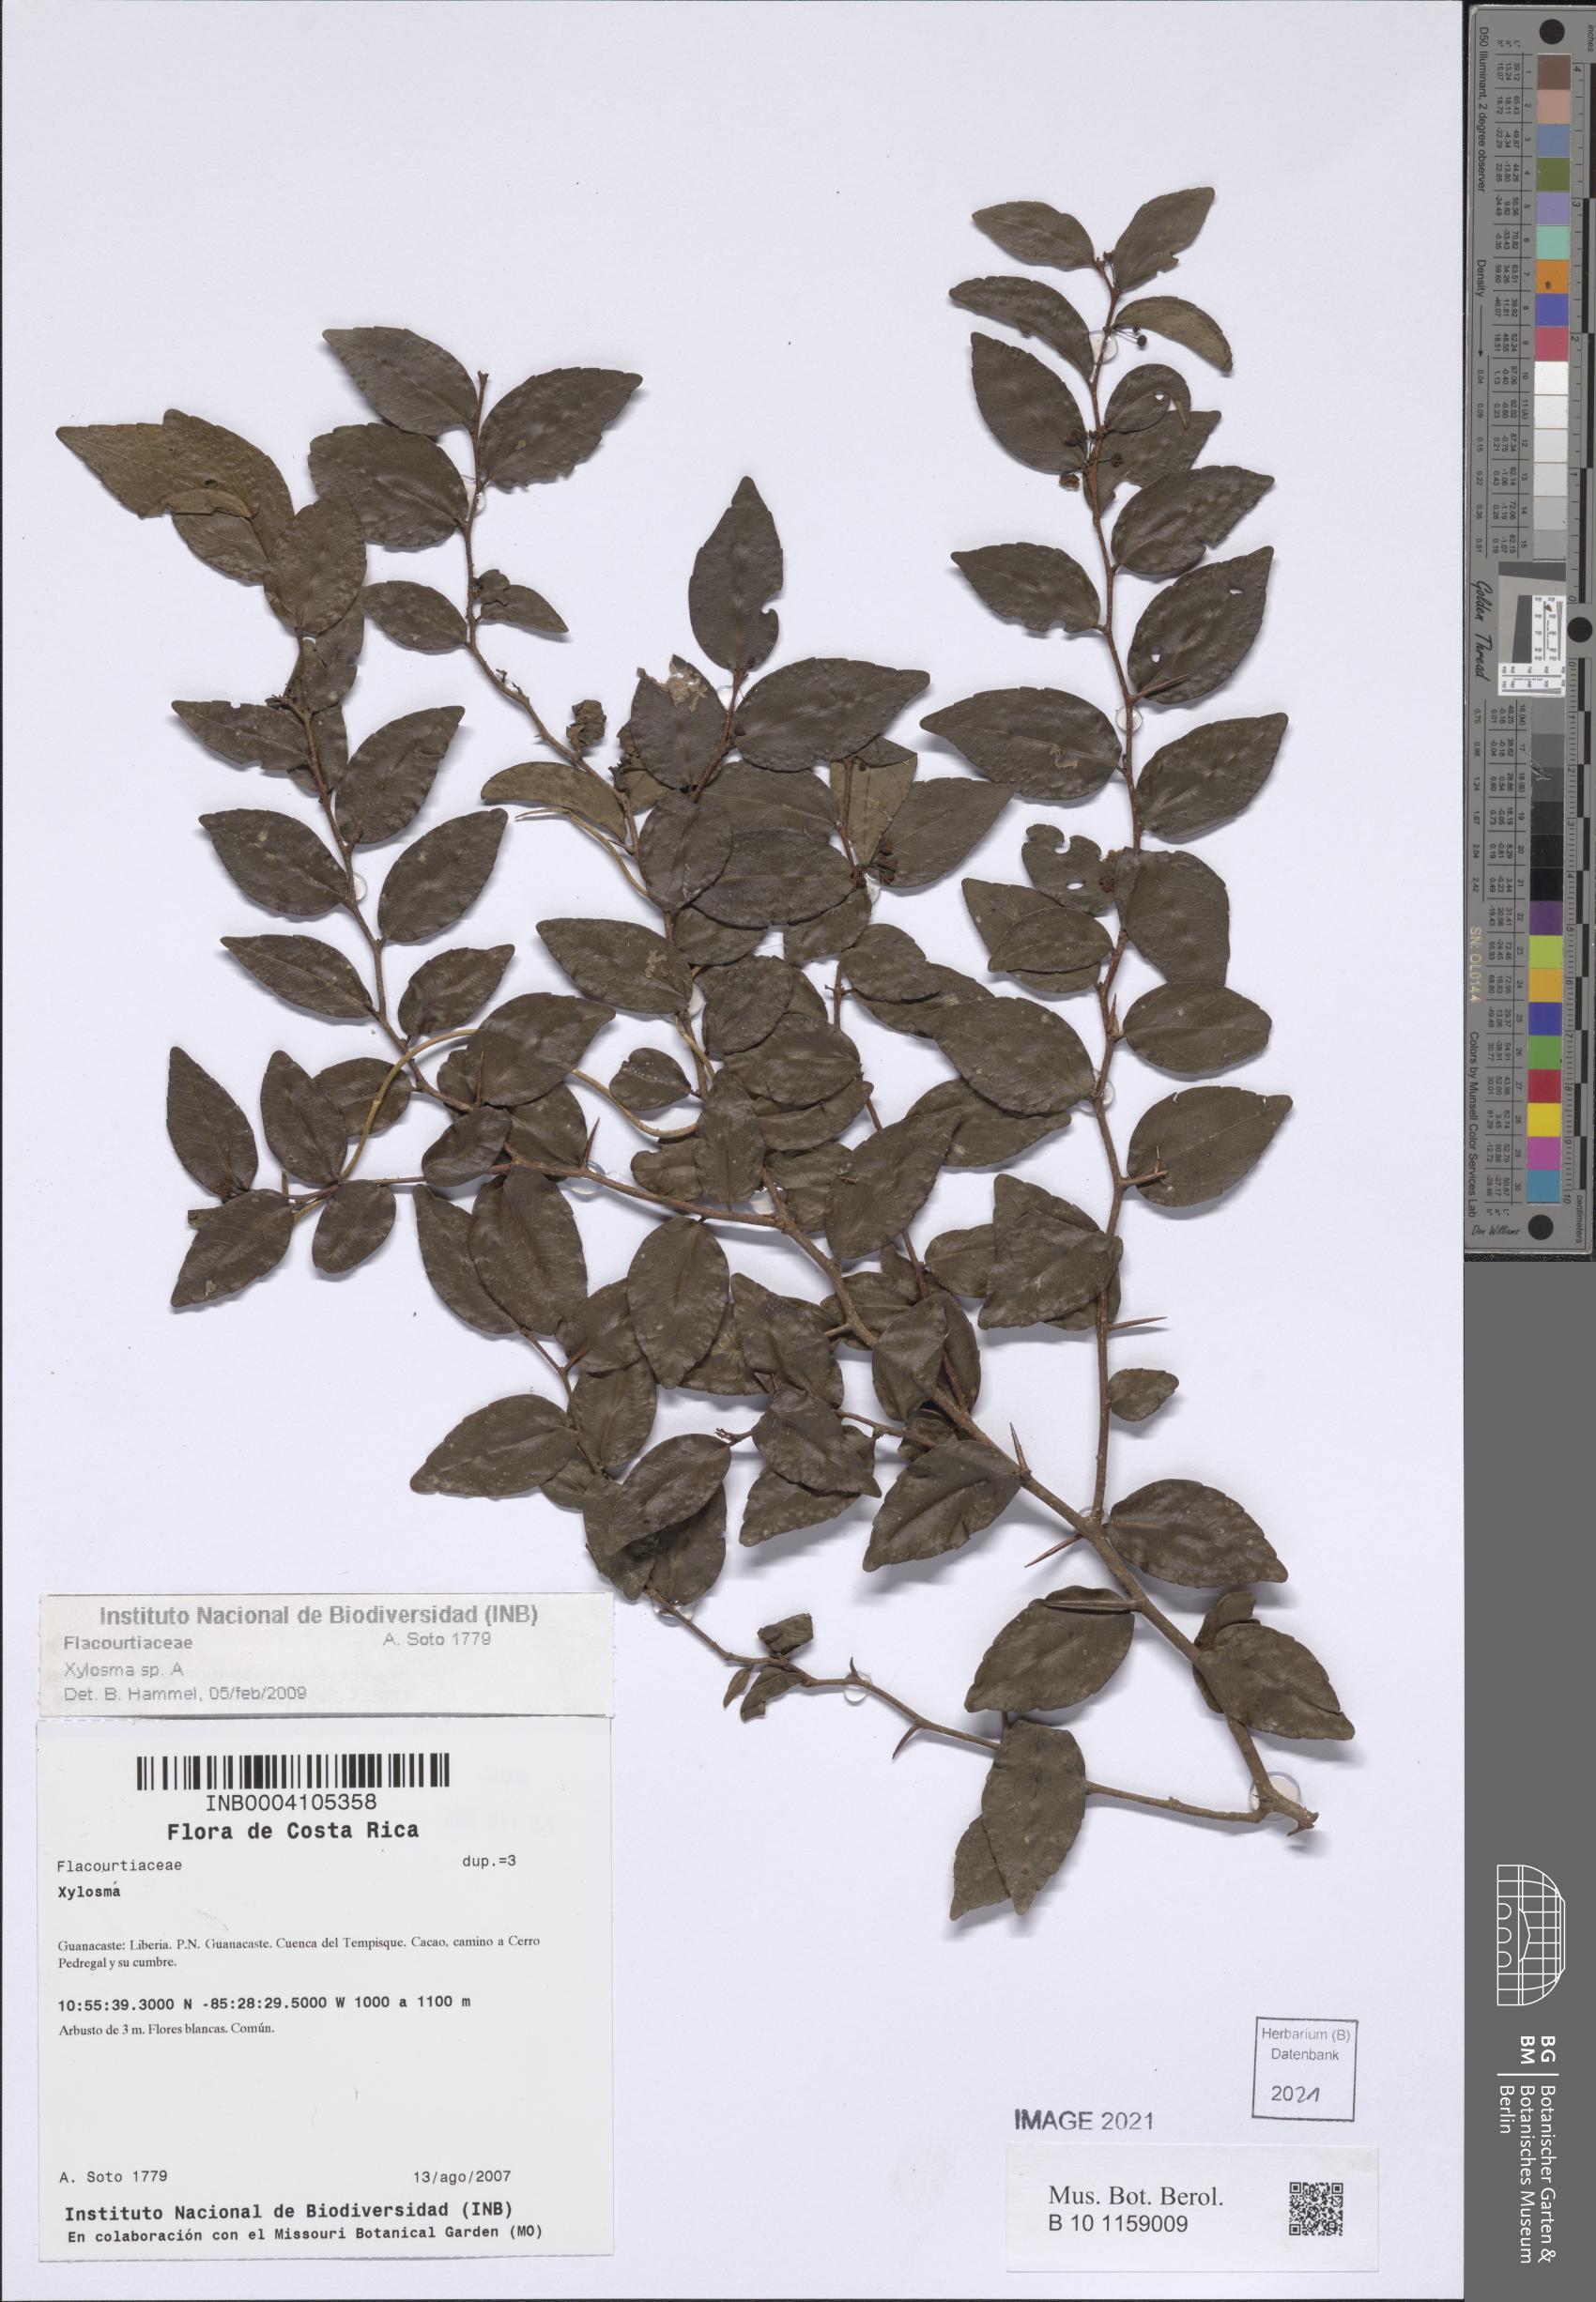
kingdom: Plantae
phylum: Tracheophyta
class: Magnoliopsida
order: Malpighiales
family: Salicaceae
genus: Xylosma
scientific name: Xylosma
